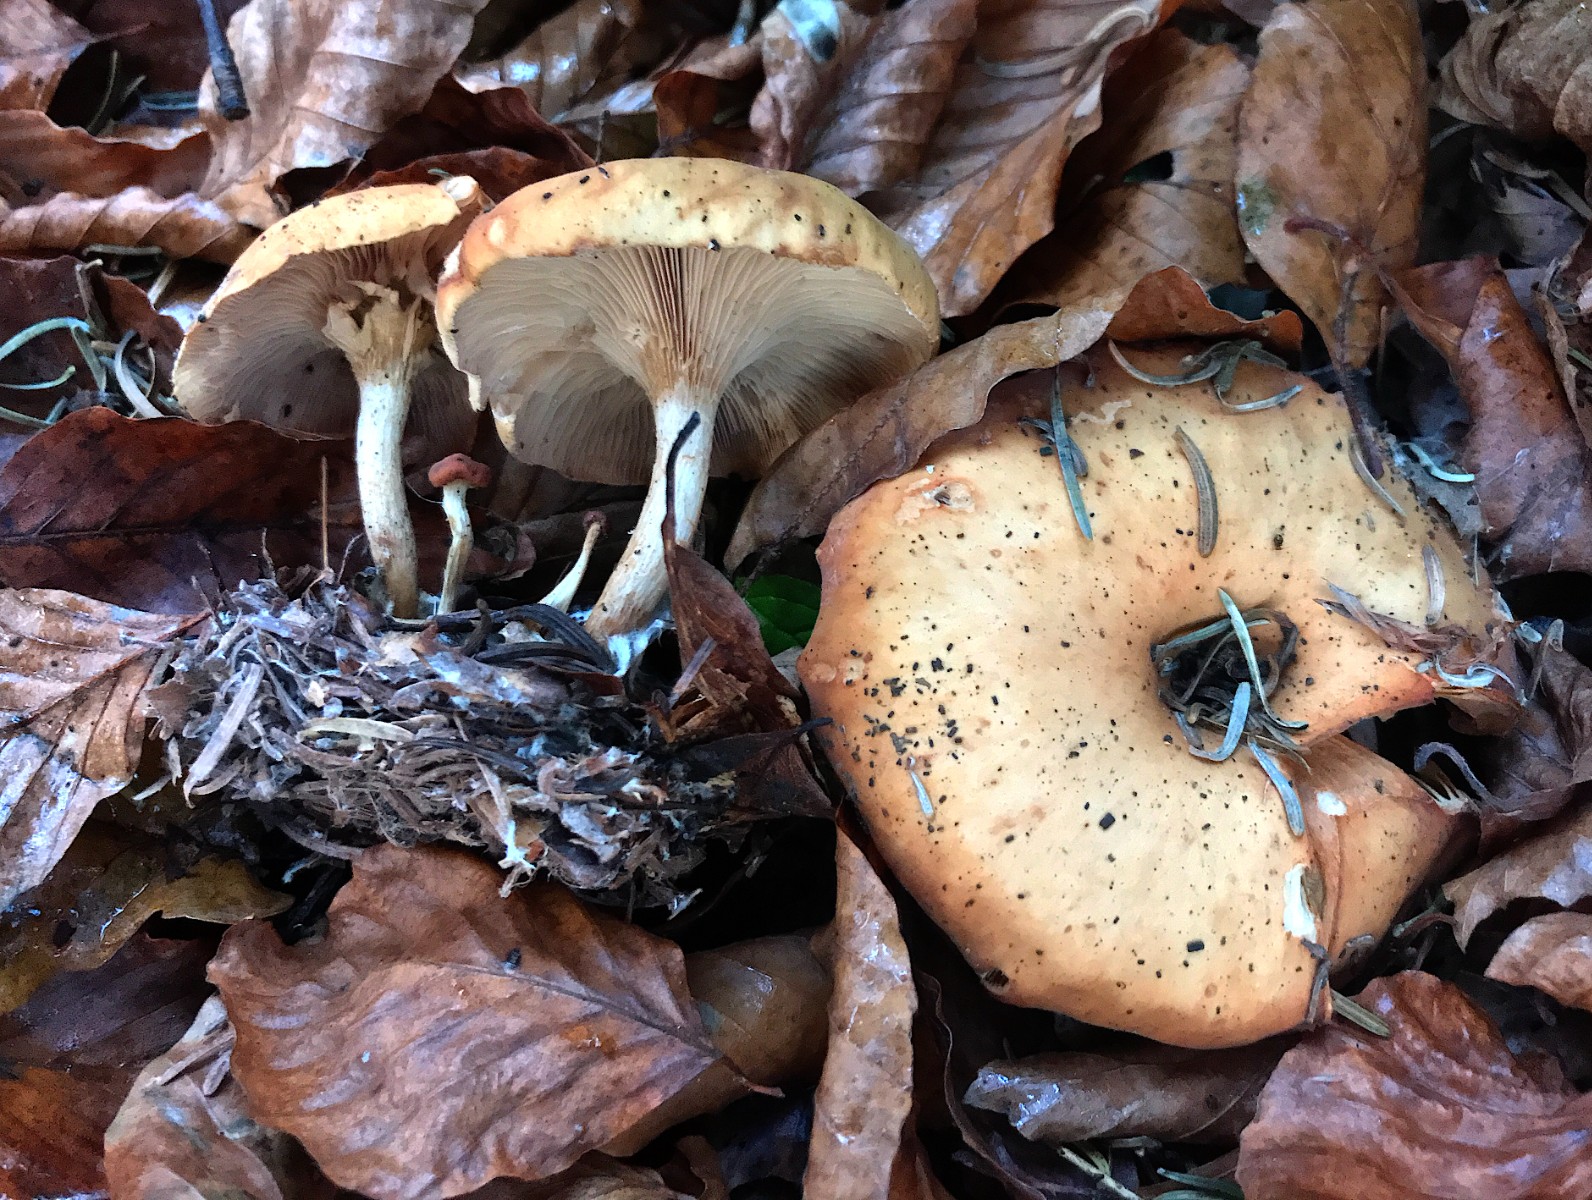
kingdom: Fungi
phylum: Basidiomycota
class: Agaricomycetes
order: Agaricales
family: Tricholomataceae
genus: Paralepista
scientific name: Paralepista flaccida
